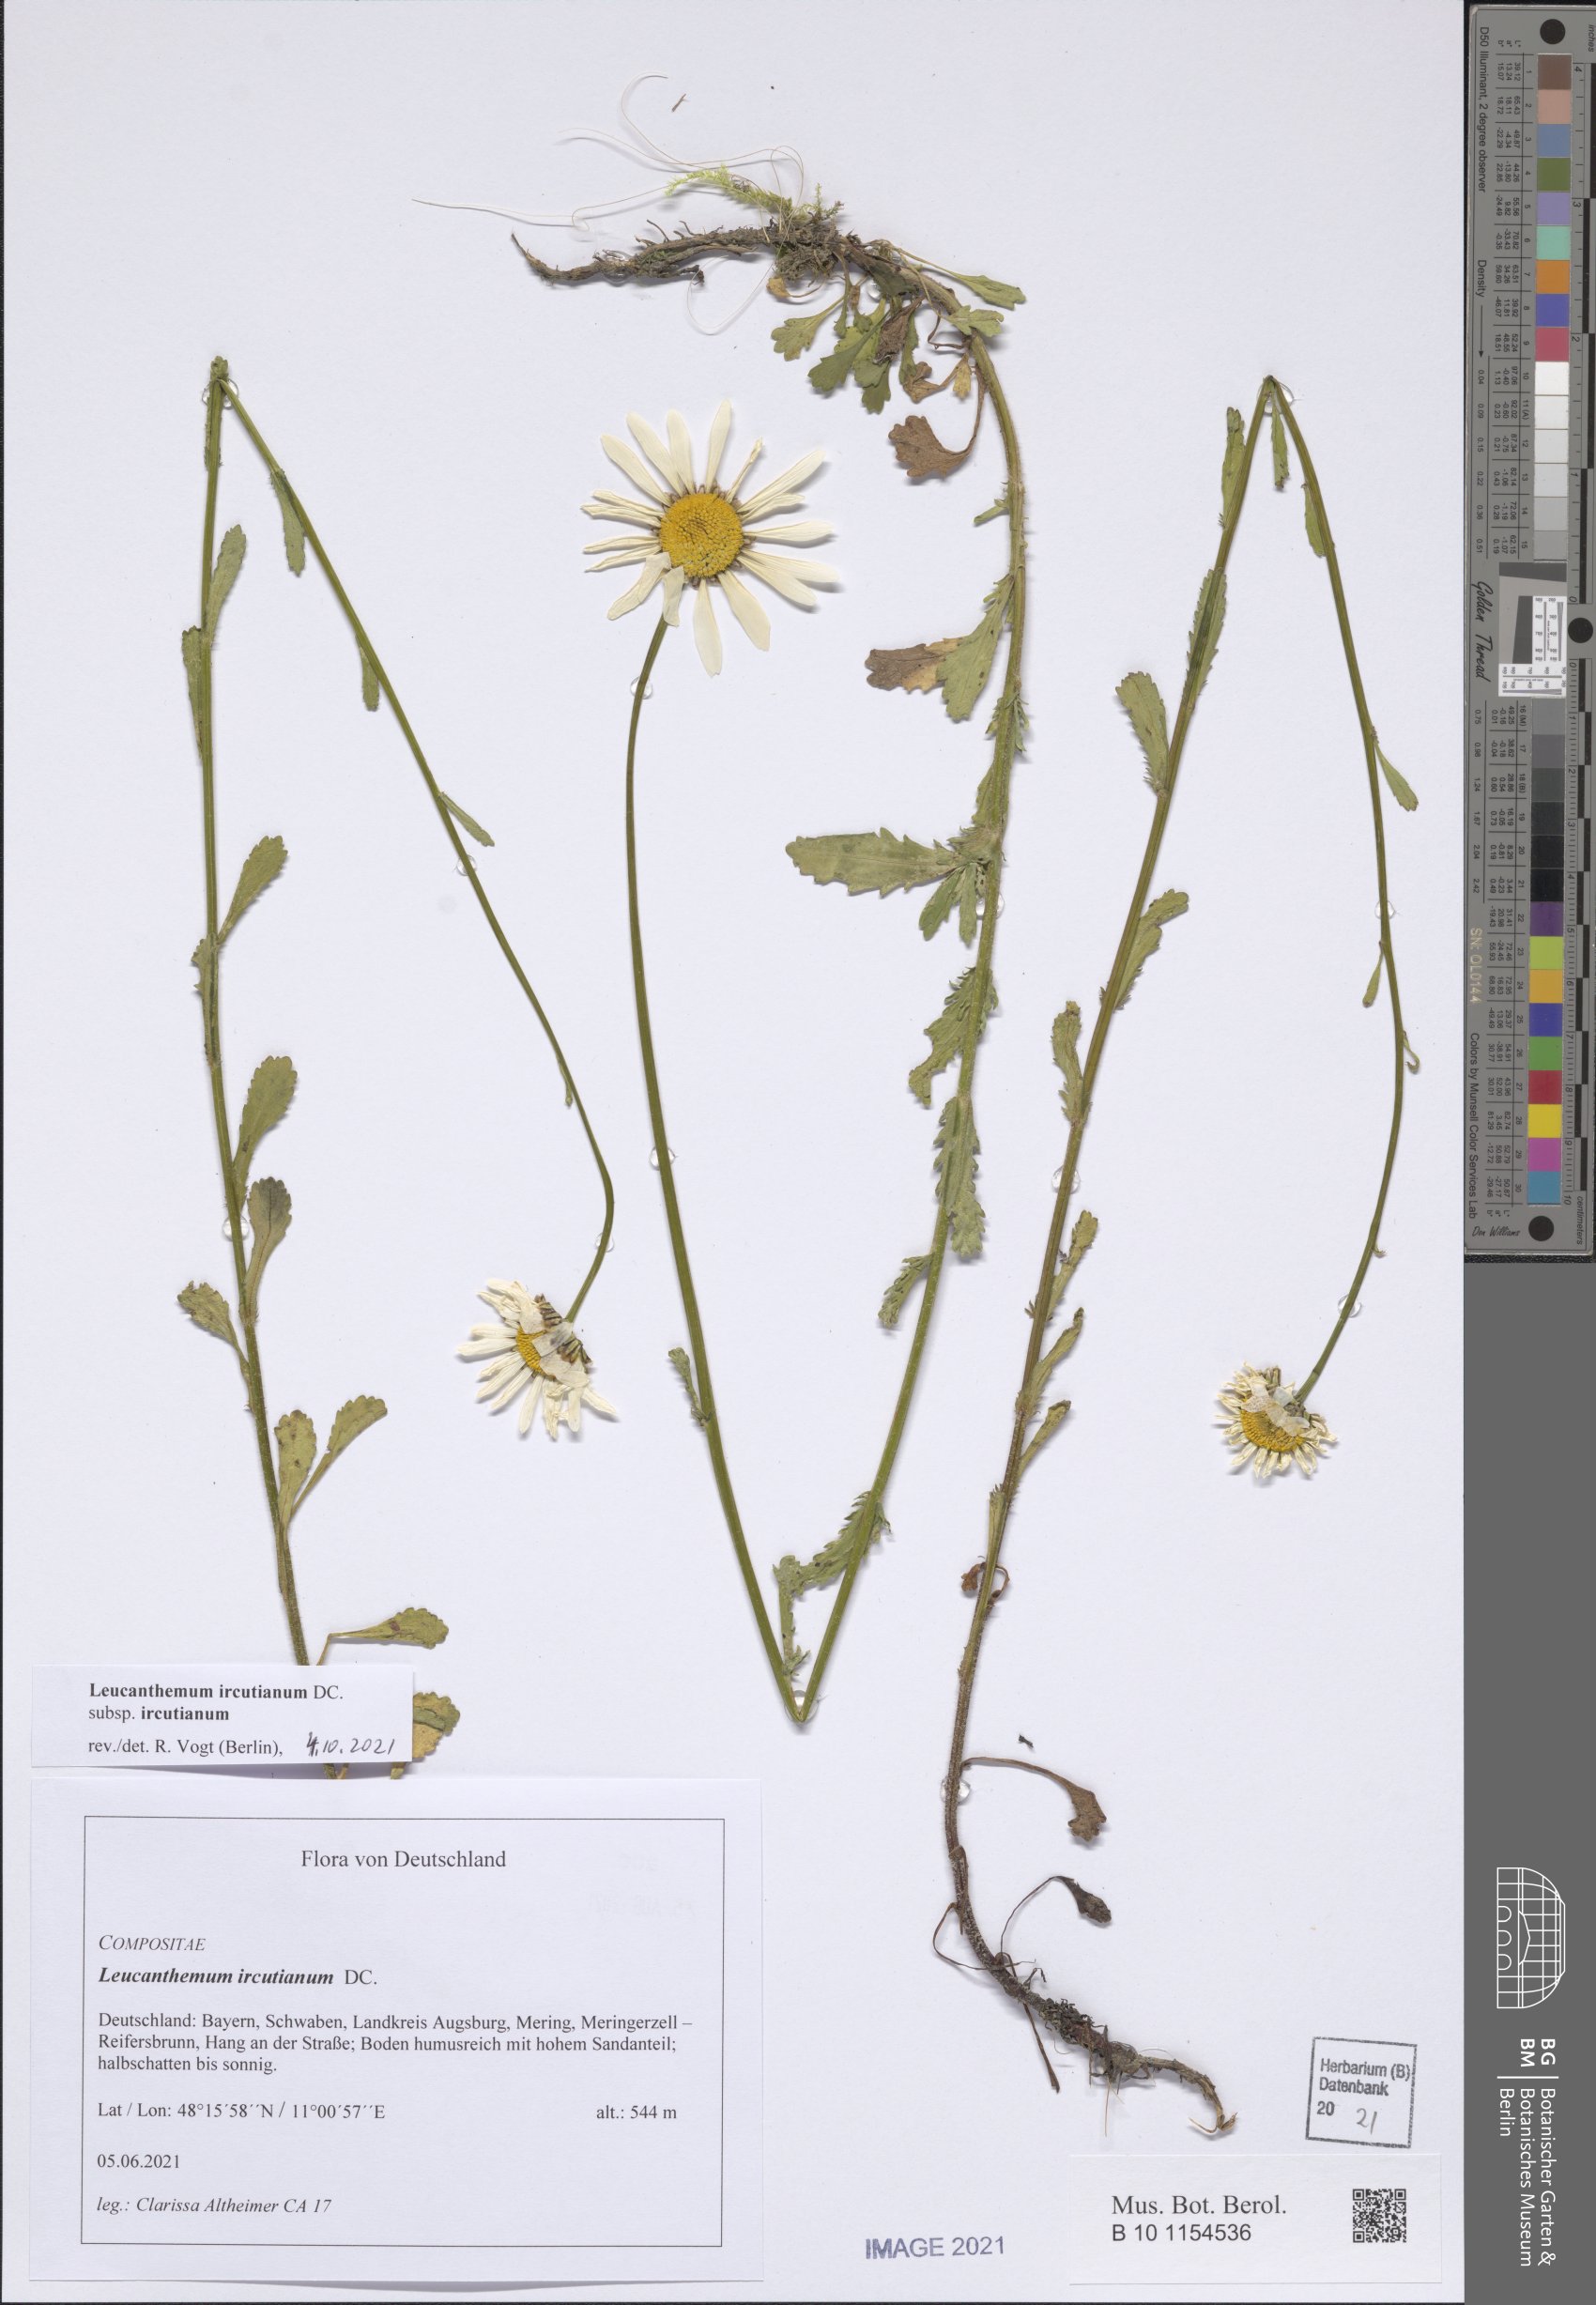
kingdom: Plantae
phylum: Tracheophyta
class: Magnoliopsida
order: Asterales
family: Asteraceae
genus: Leucanthemum
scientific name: Leucanthemum ircutianum
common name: Daisy
